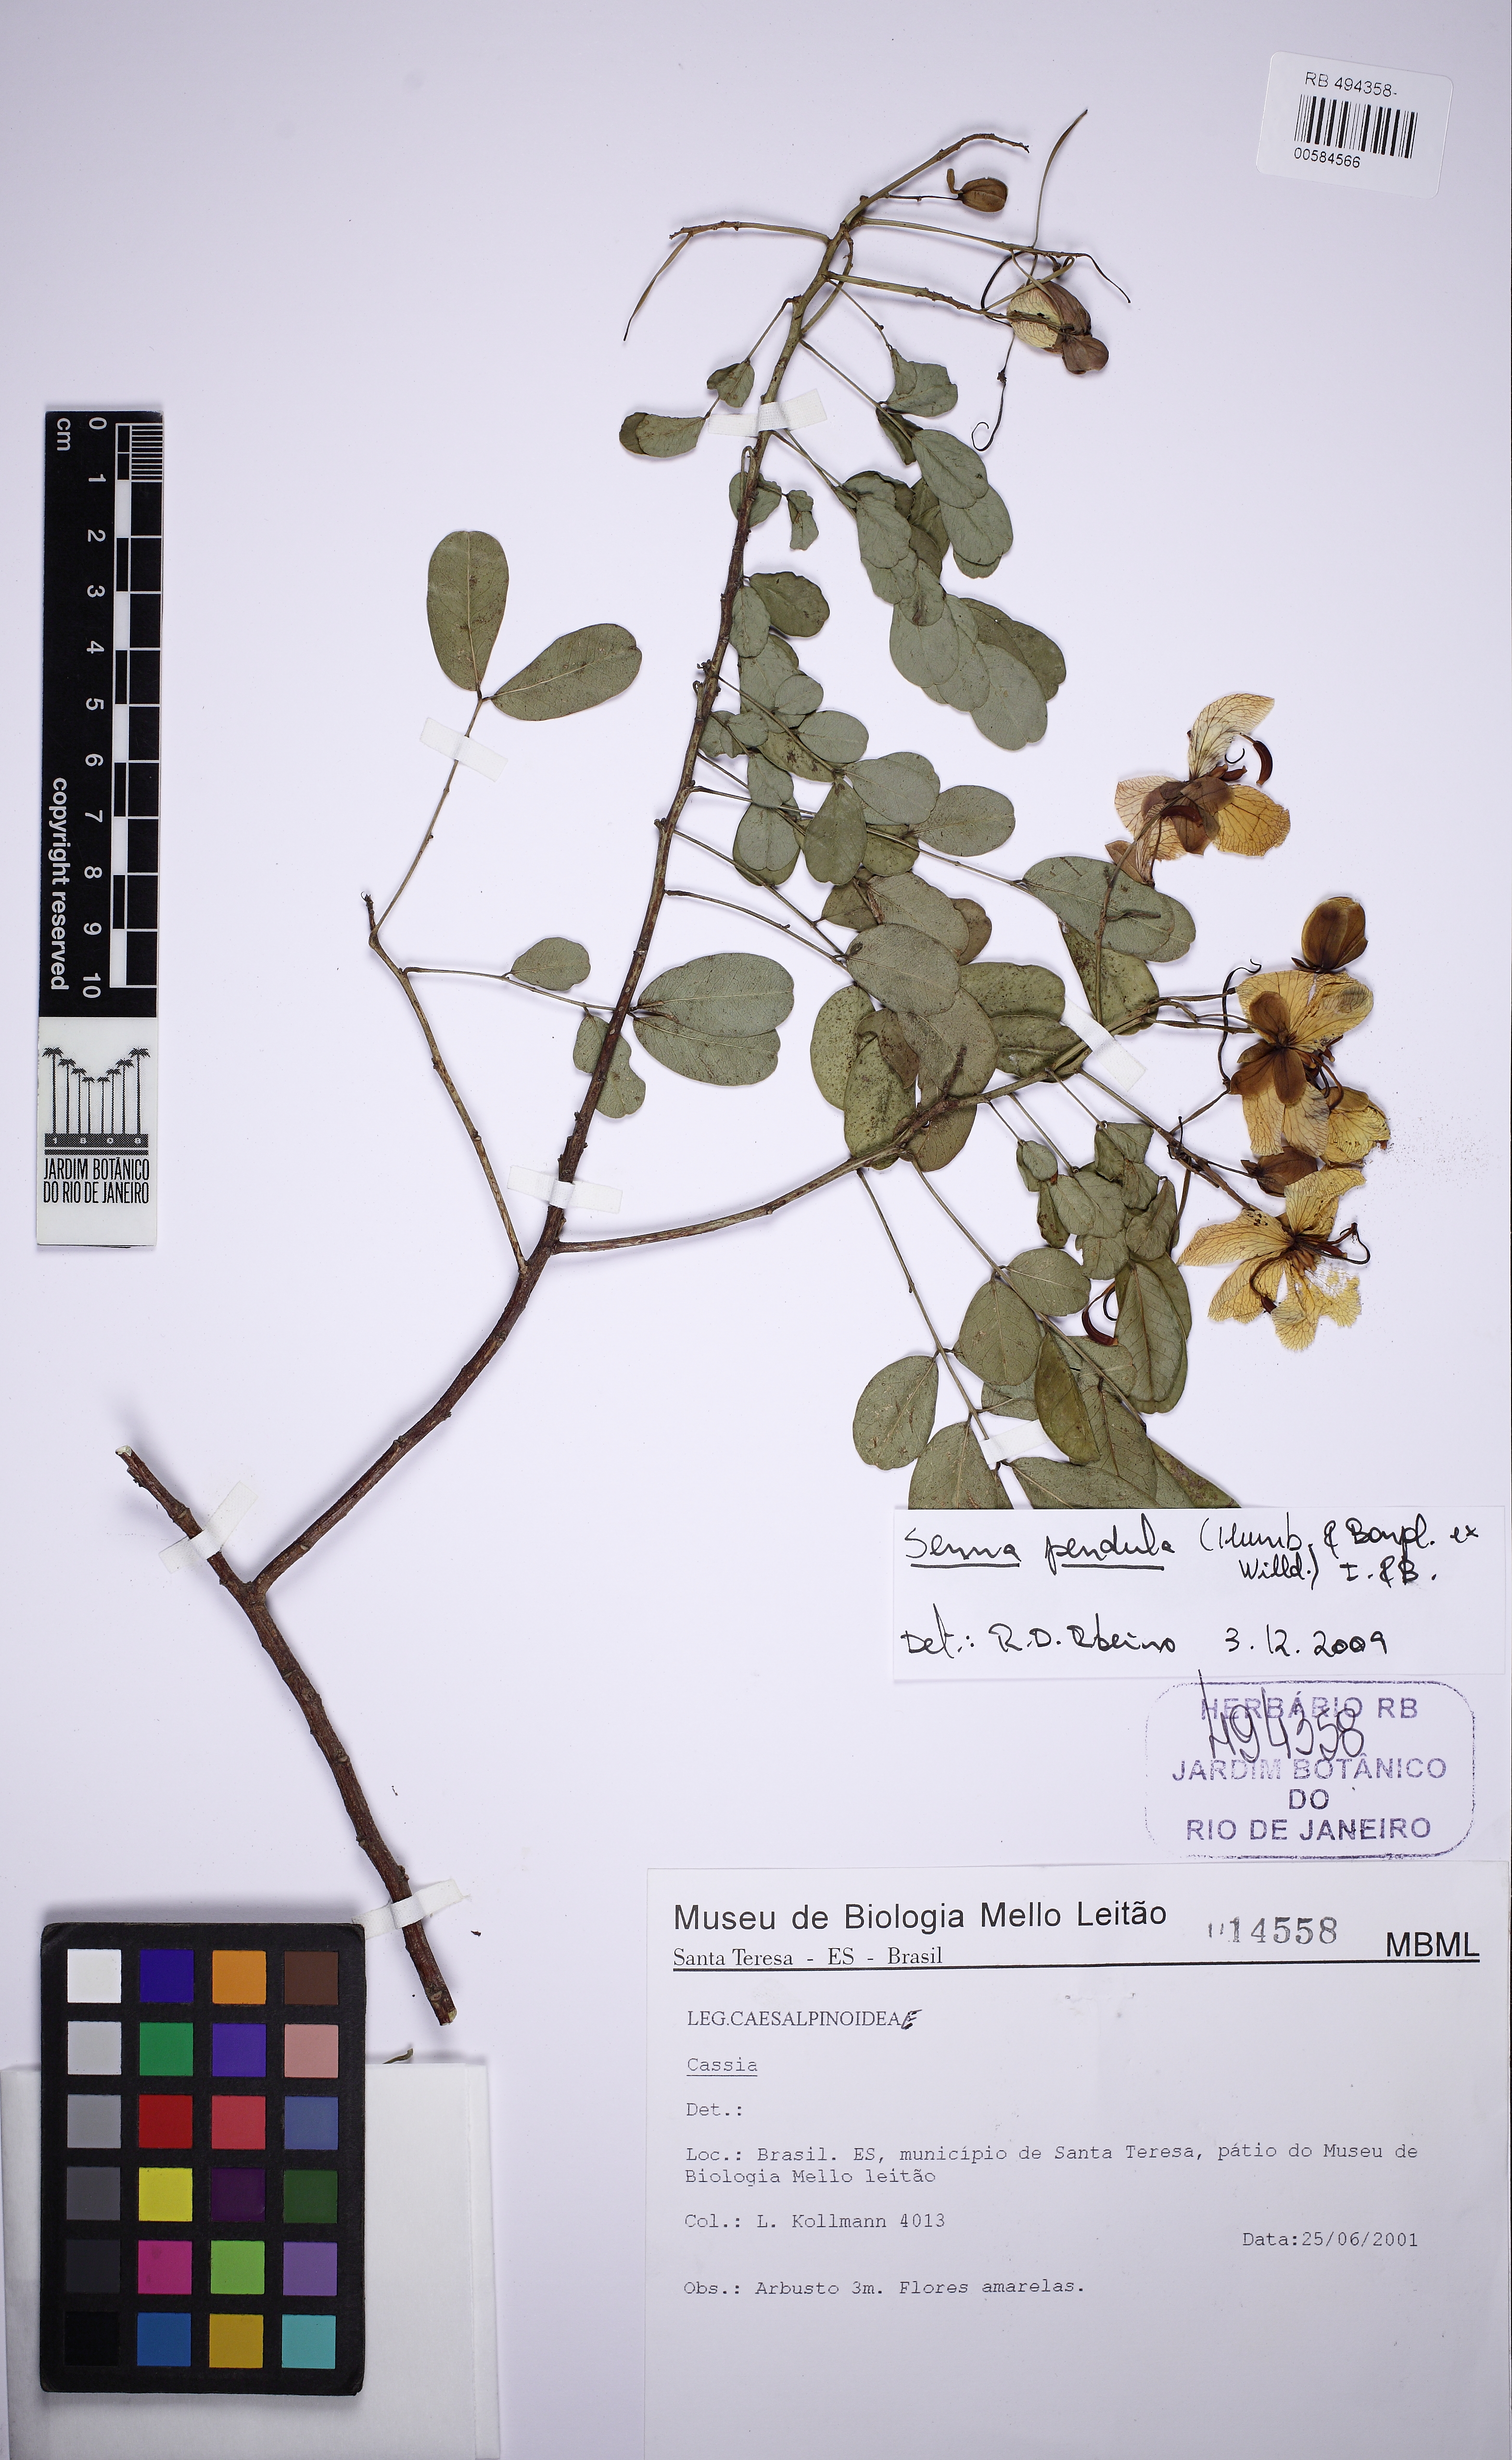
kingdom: Plantae
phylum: Tracheophyta
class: Magnoliopsida
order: Fabales
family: Fabaceae
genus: Senna
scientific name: Senna pendula
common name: Easter cassia
